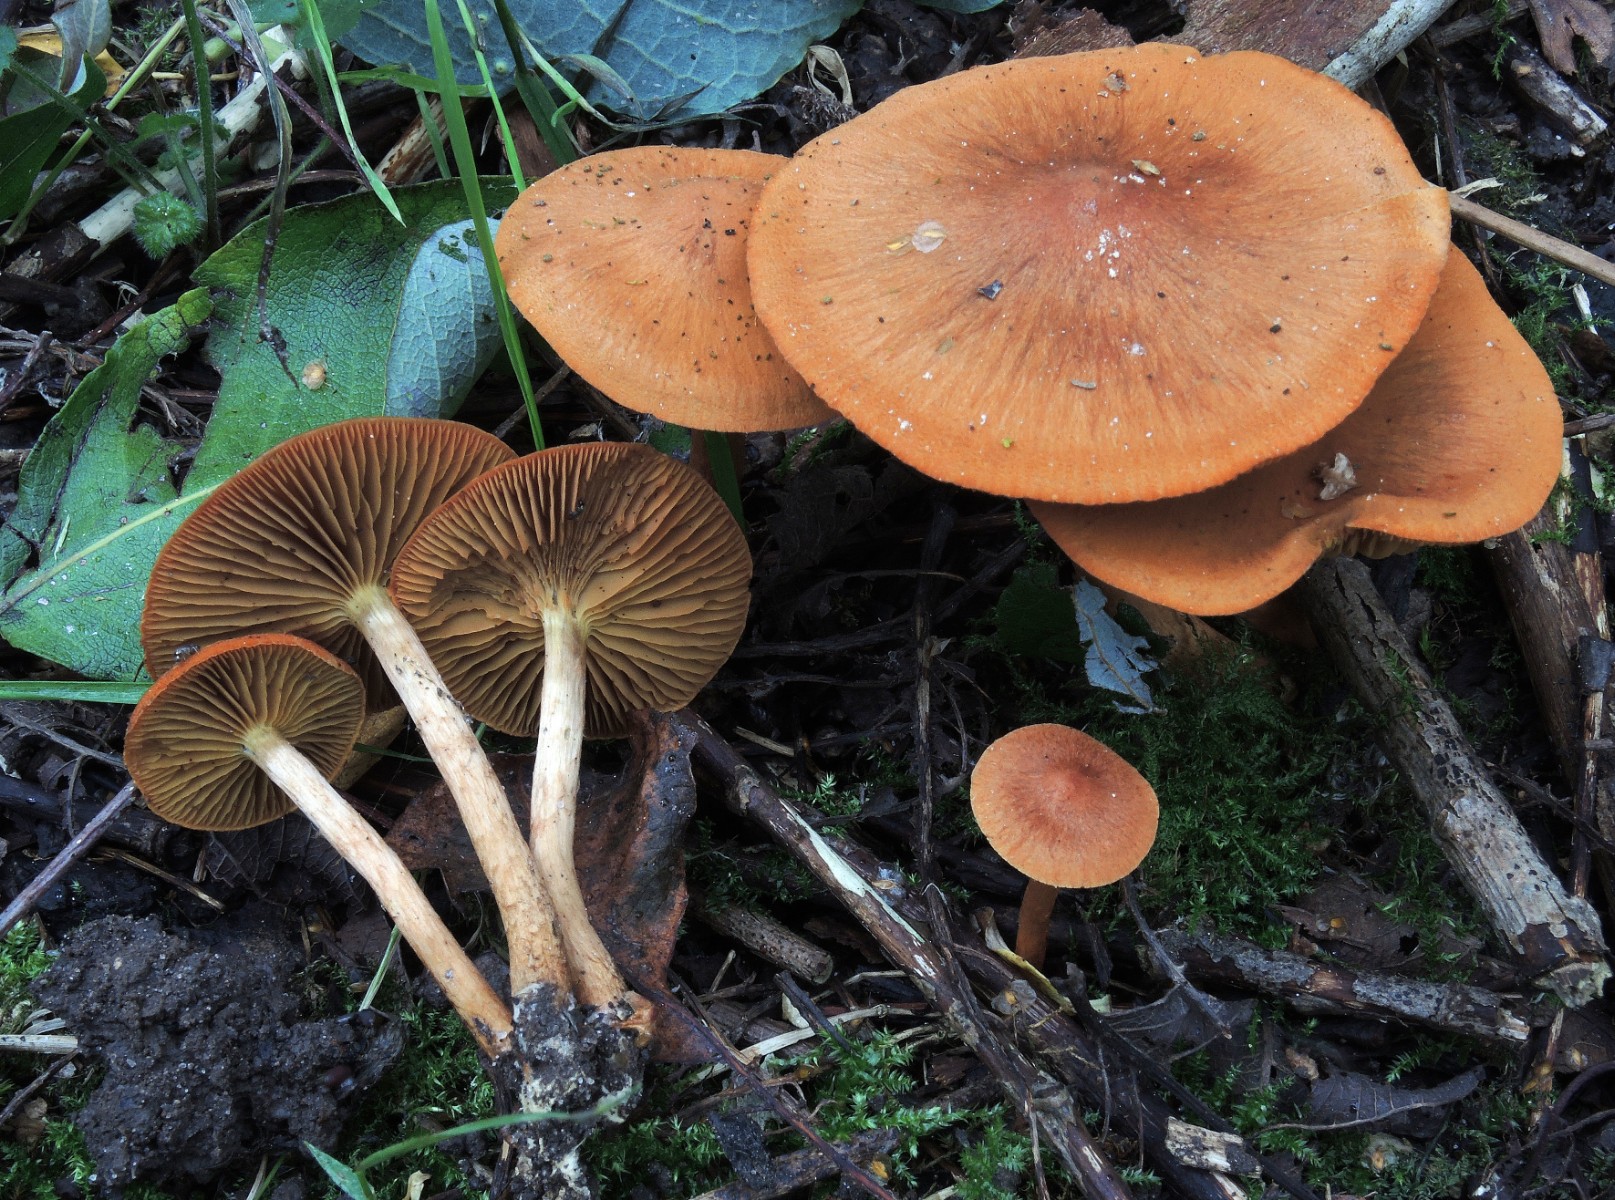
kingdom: Fungi
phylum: Basidiomycota
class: Agaricomycetes
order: Agaricales
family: Cortinariaceae
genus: Cortinarius
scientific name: Cortinarius uliginosus
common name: mose-slørhat
